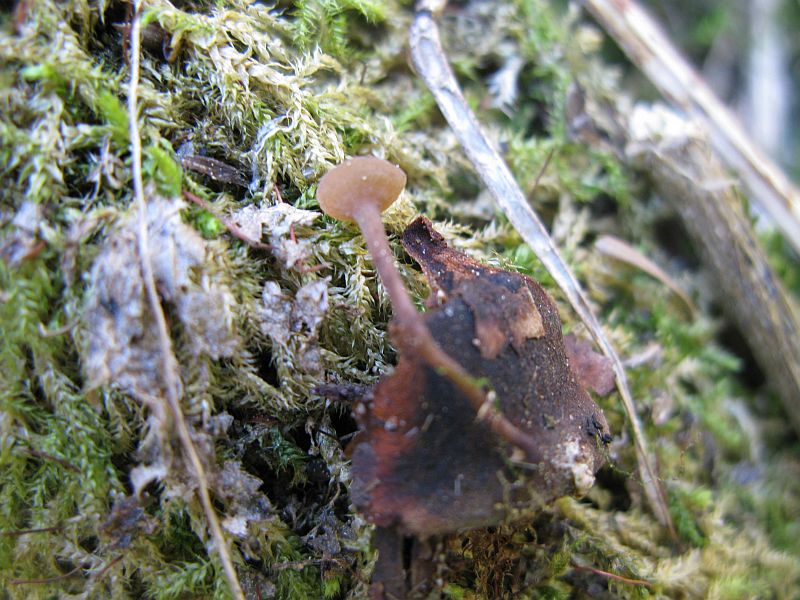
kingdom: Fungi
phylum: Ascomycota
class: Leotiomycetes
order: Helotiales
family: Sclerotiniaceae
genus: Ciboria
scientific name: Ciboria rufofusca
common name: kogleskæl-knoldskive
